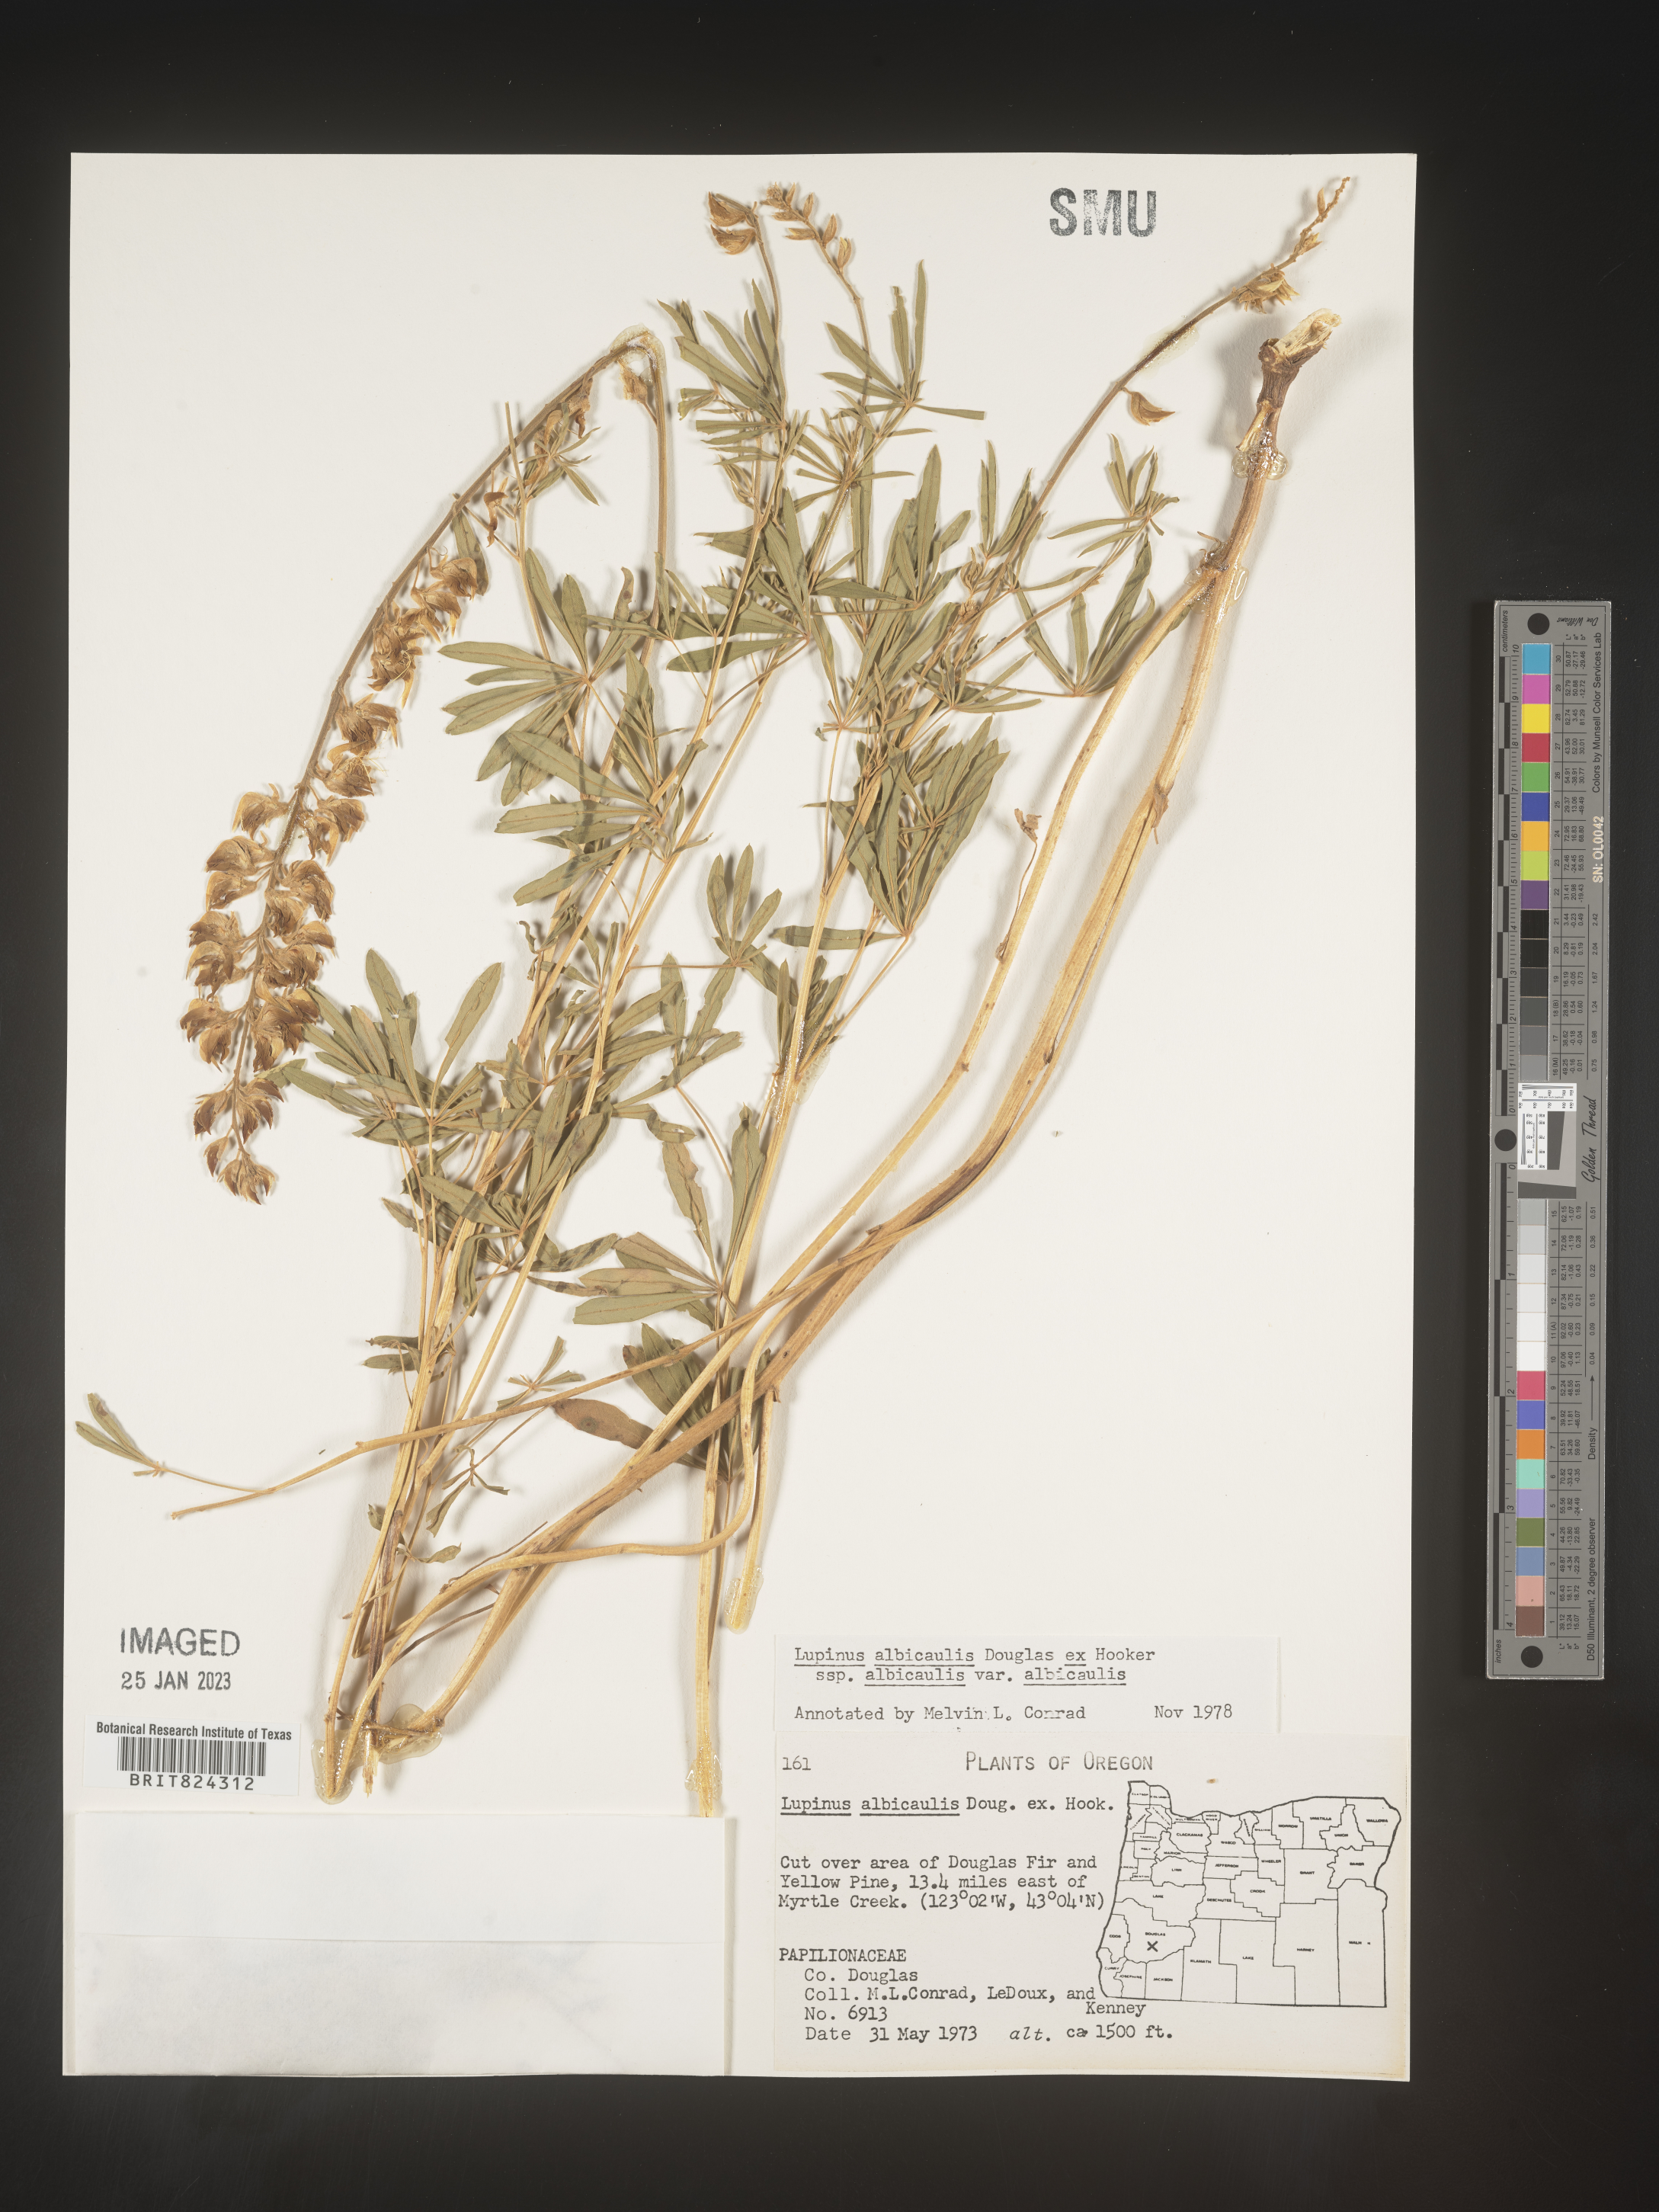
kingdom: Plantae
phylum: Tracheophyta
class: Magnoliopsida
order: Fabales
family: Fabaceae
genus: Lupinus
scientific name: Lupinus albicaulis
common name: Pine lupine
